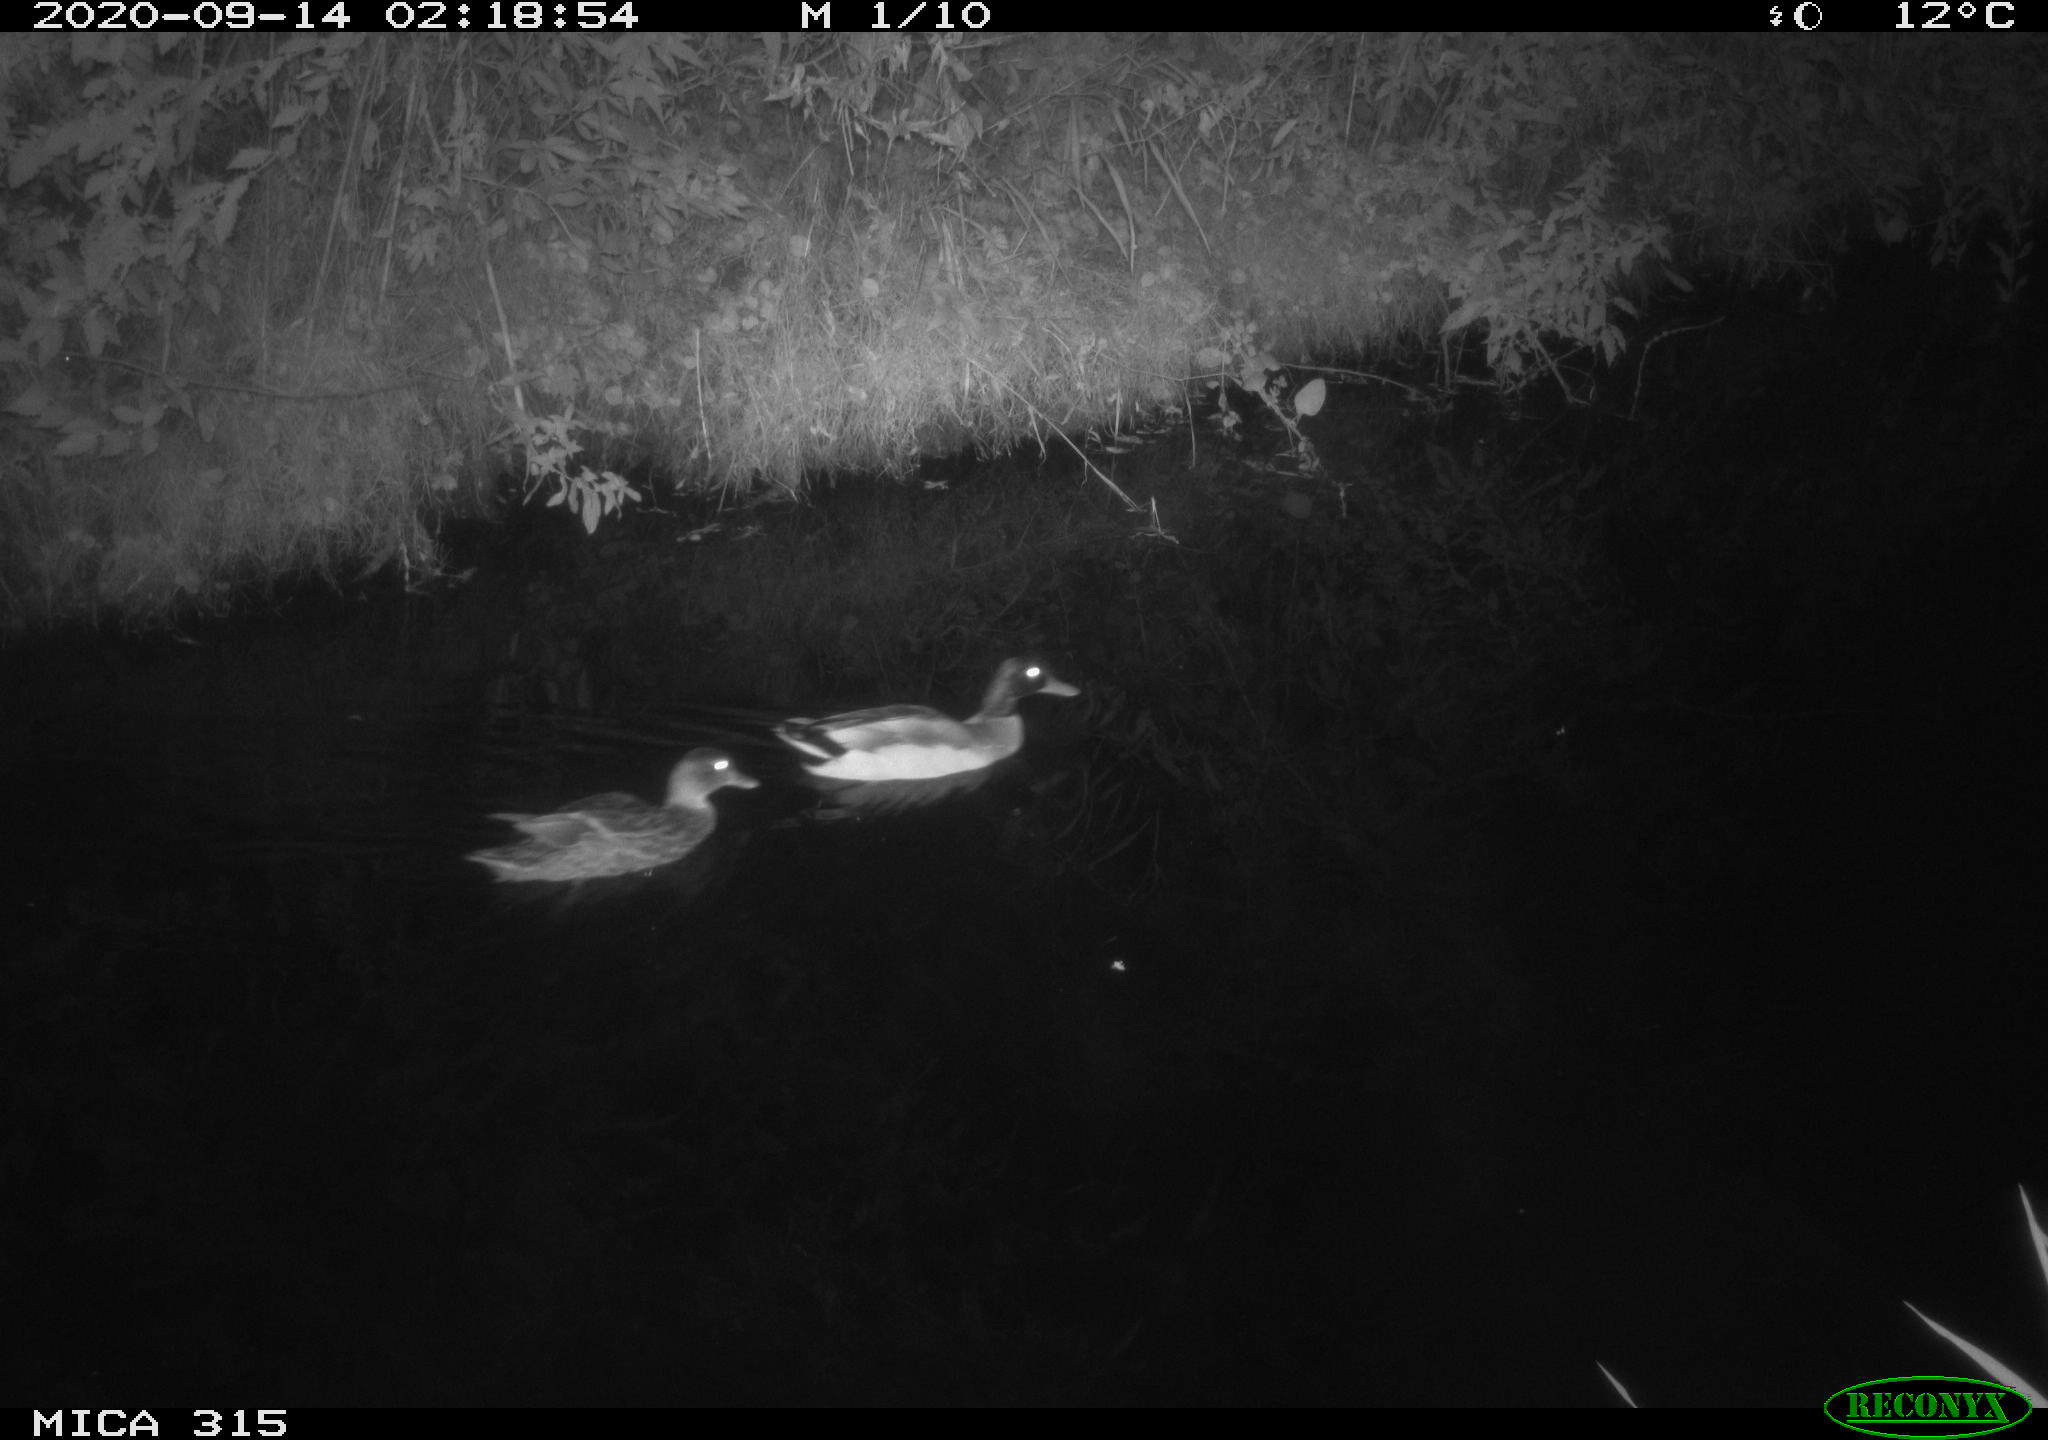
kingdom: Animalia
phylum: Chordata
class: Aves
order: Anseriformes
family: Anatidae
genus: Anas
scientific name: Anas platyrhynchos
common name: Mallard
